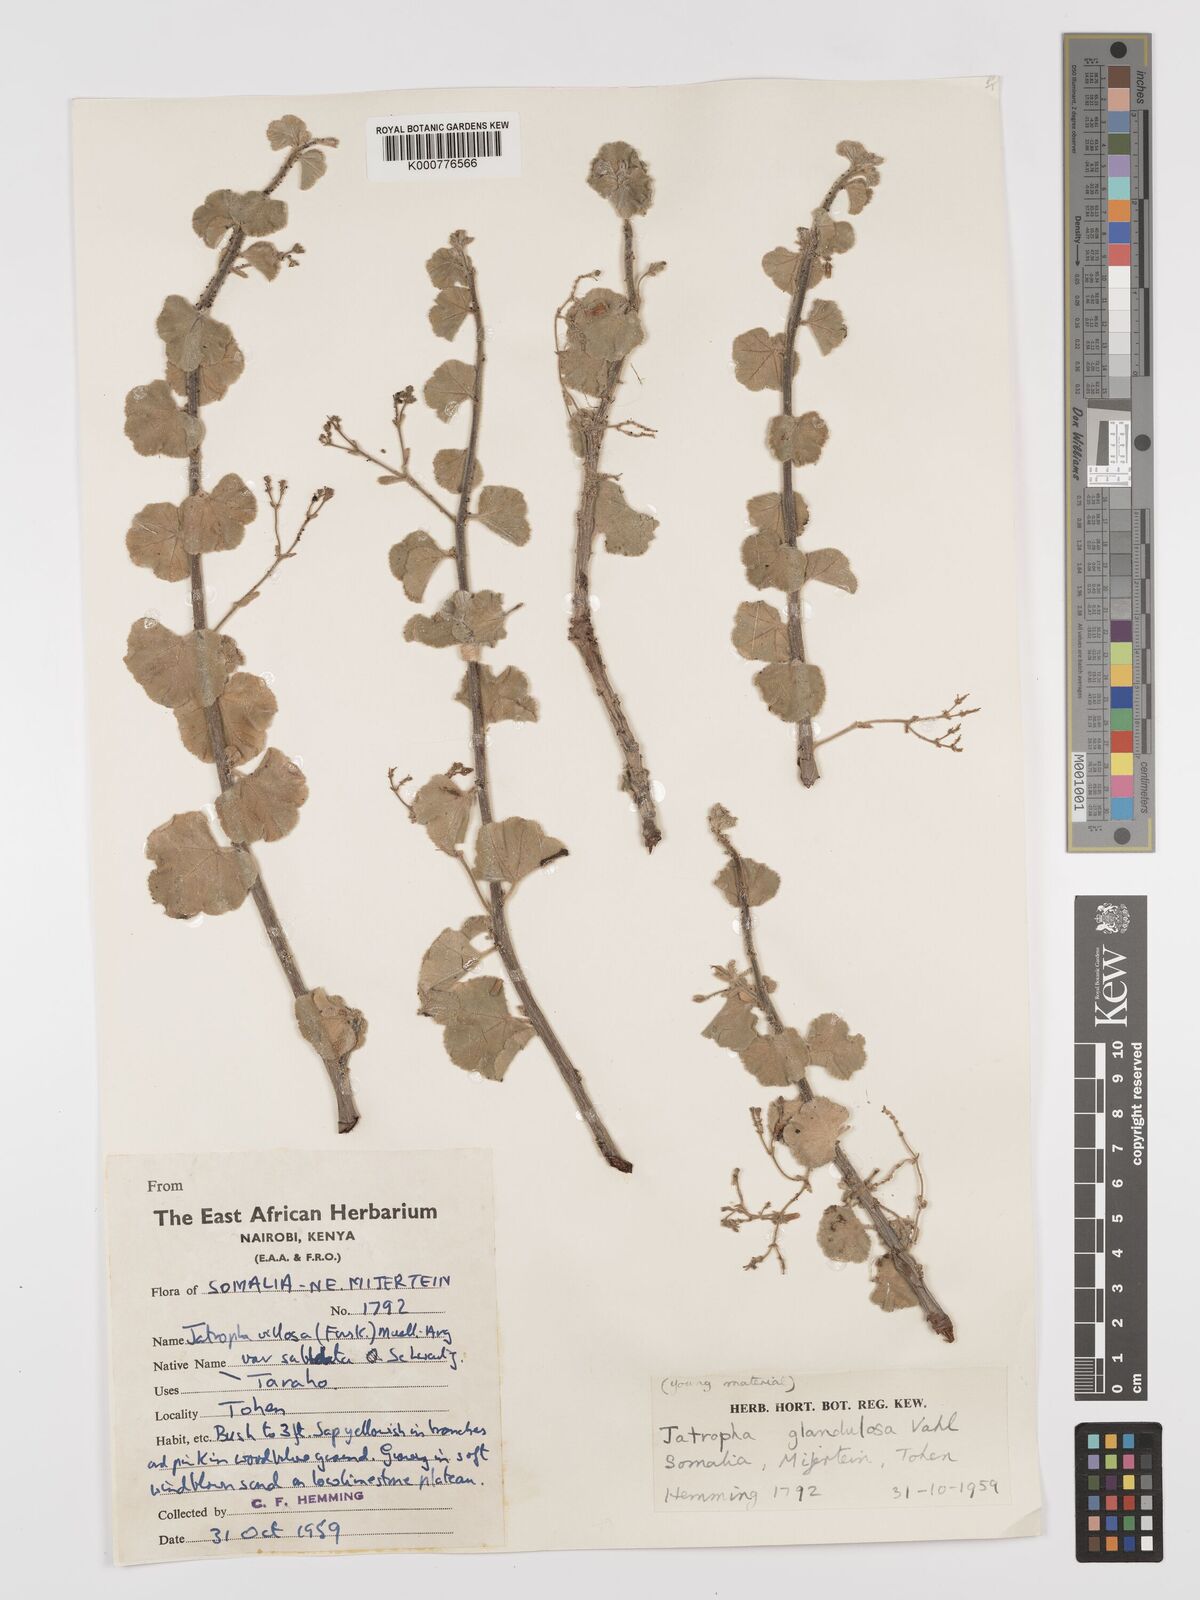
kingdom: Plantae
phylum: Tracheophyta
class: Magnoliopsida
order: Malpighiales
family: Euphorbiaceae
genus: Jatropha
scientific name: Jatropha pelargoniifolia
